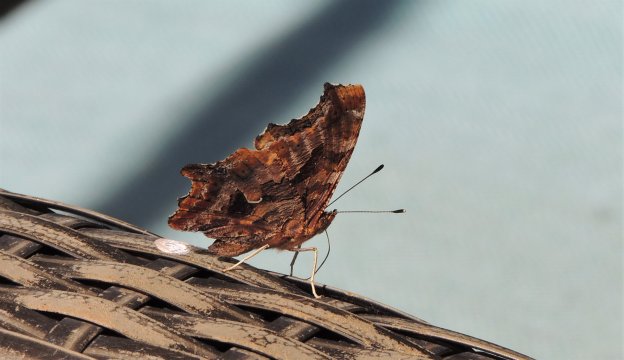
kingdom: Animalia
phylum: Arthropoda
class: Insecta
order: Lepidoptera
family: Nymphalidae
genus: Polygonia
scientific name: Polygonia comma
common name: Eastern Comma
